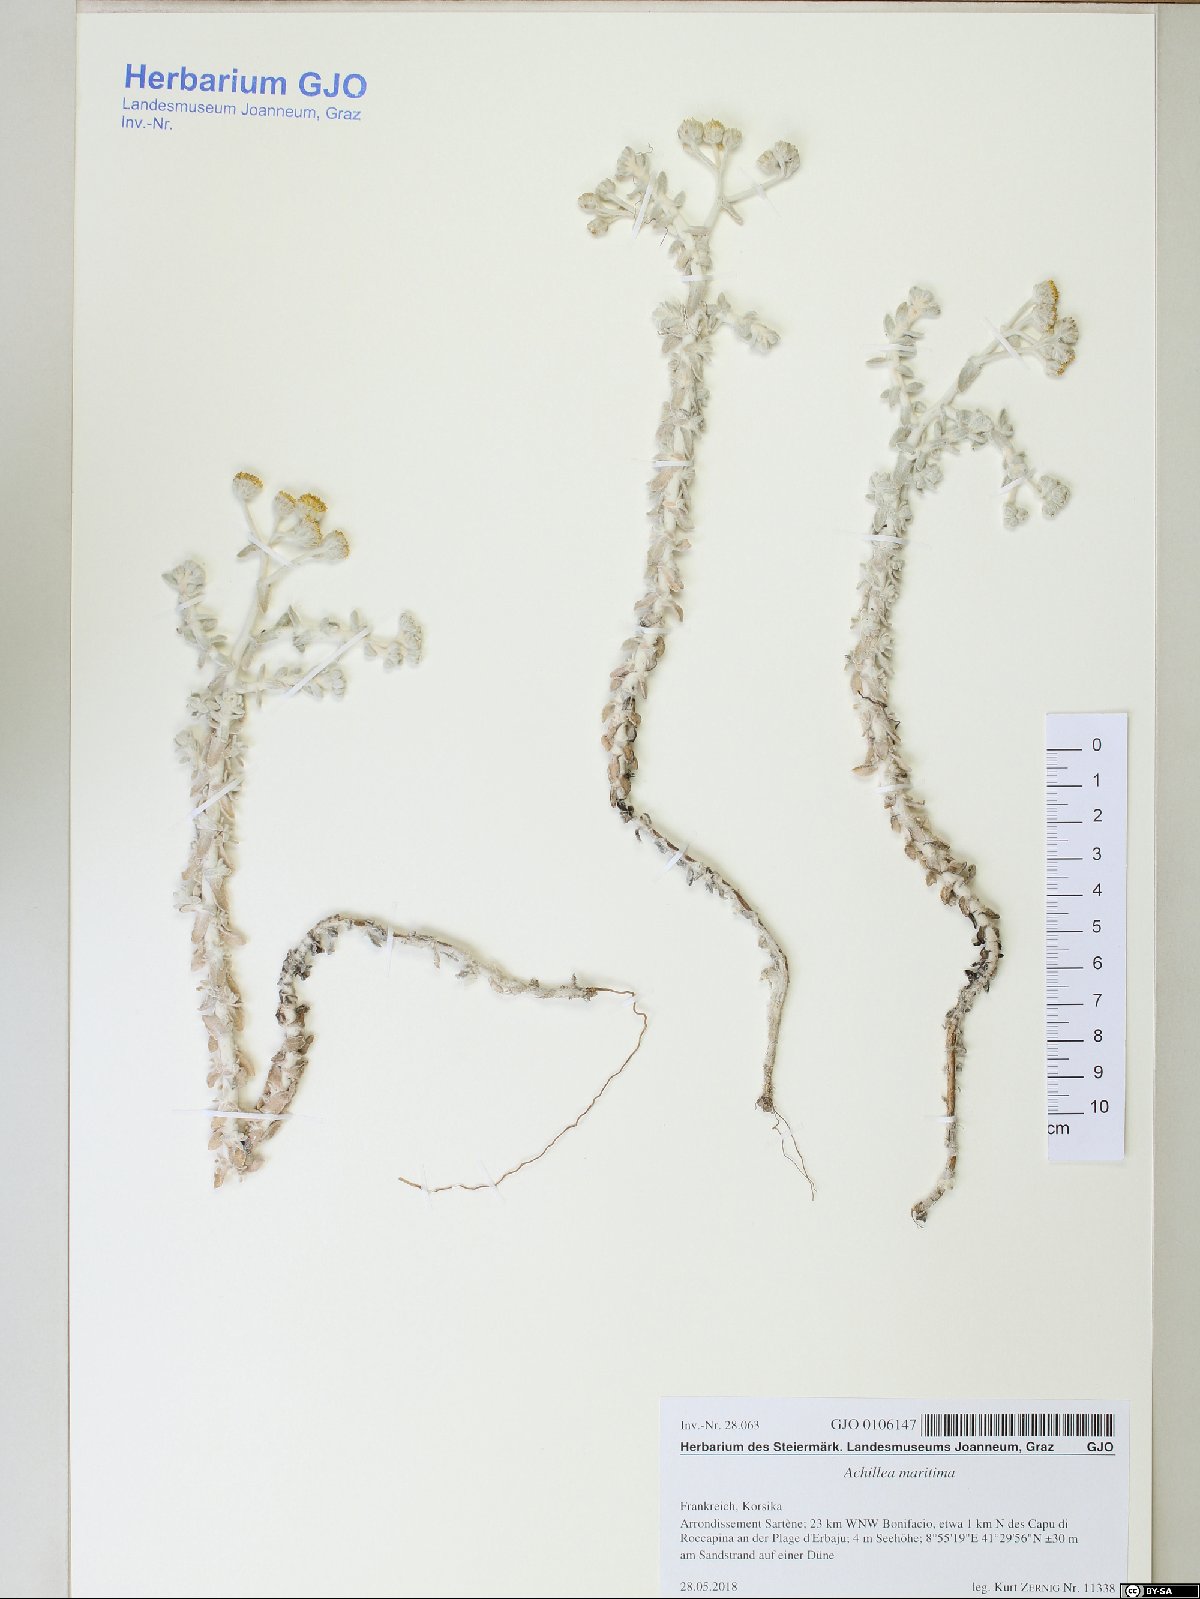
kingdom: Plantae
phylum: Tracheophyta
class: Magnoliopsida
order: Asterales
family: Asteraceae
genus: Achillea
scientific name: Achillea maritima
